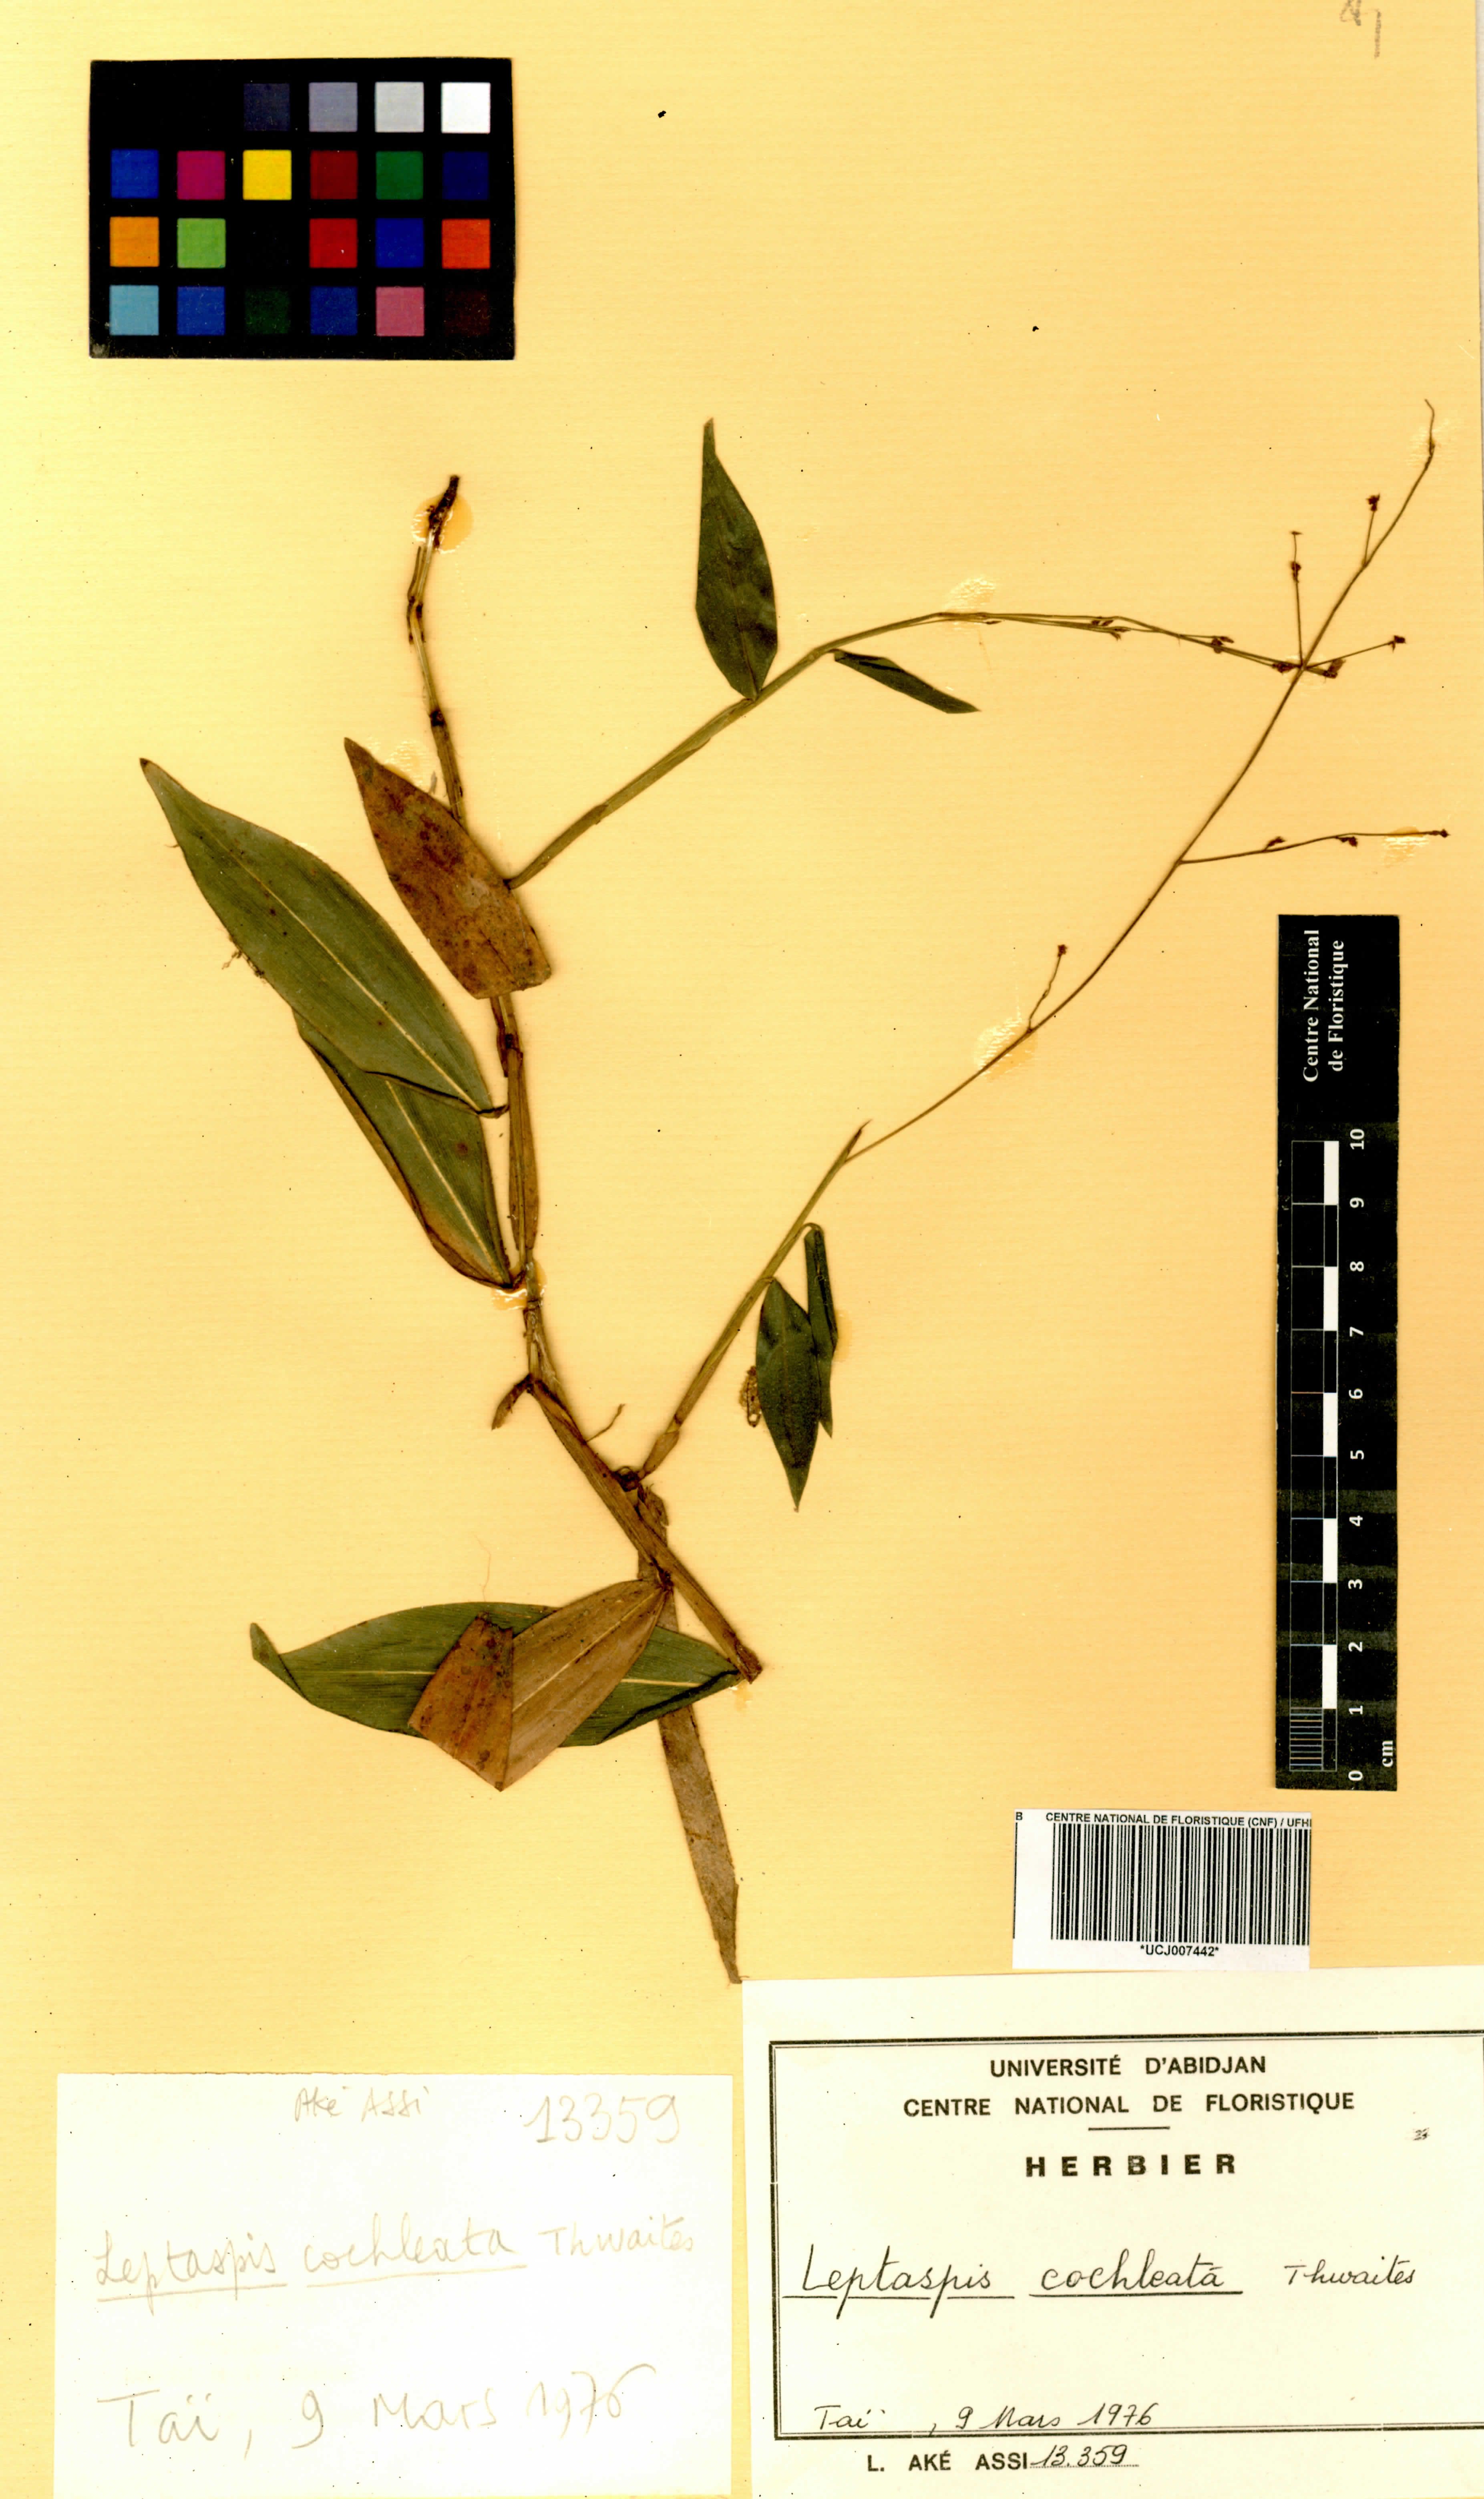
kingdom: Plantae
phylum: Tracheophyta
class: Liliopsida
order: Poales
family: Poaceae
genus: Leptaspis
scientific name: Leptaspis zeylanica
